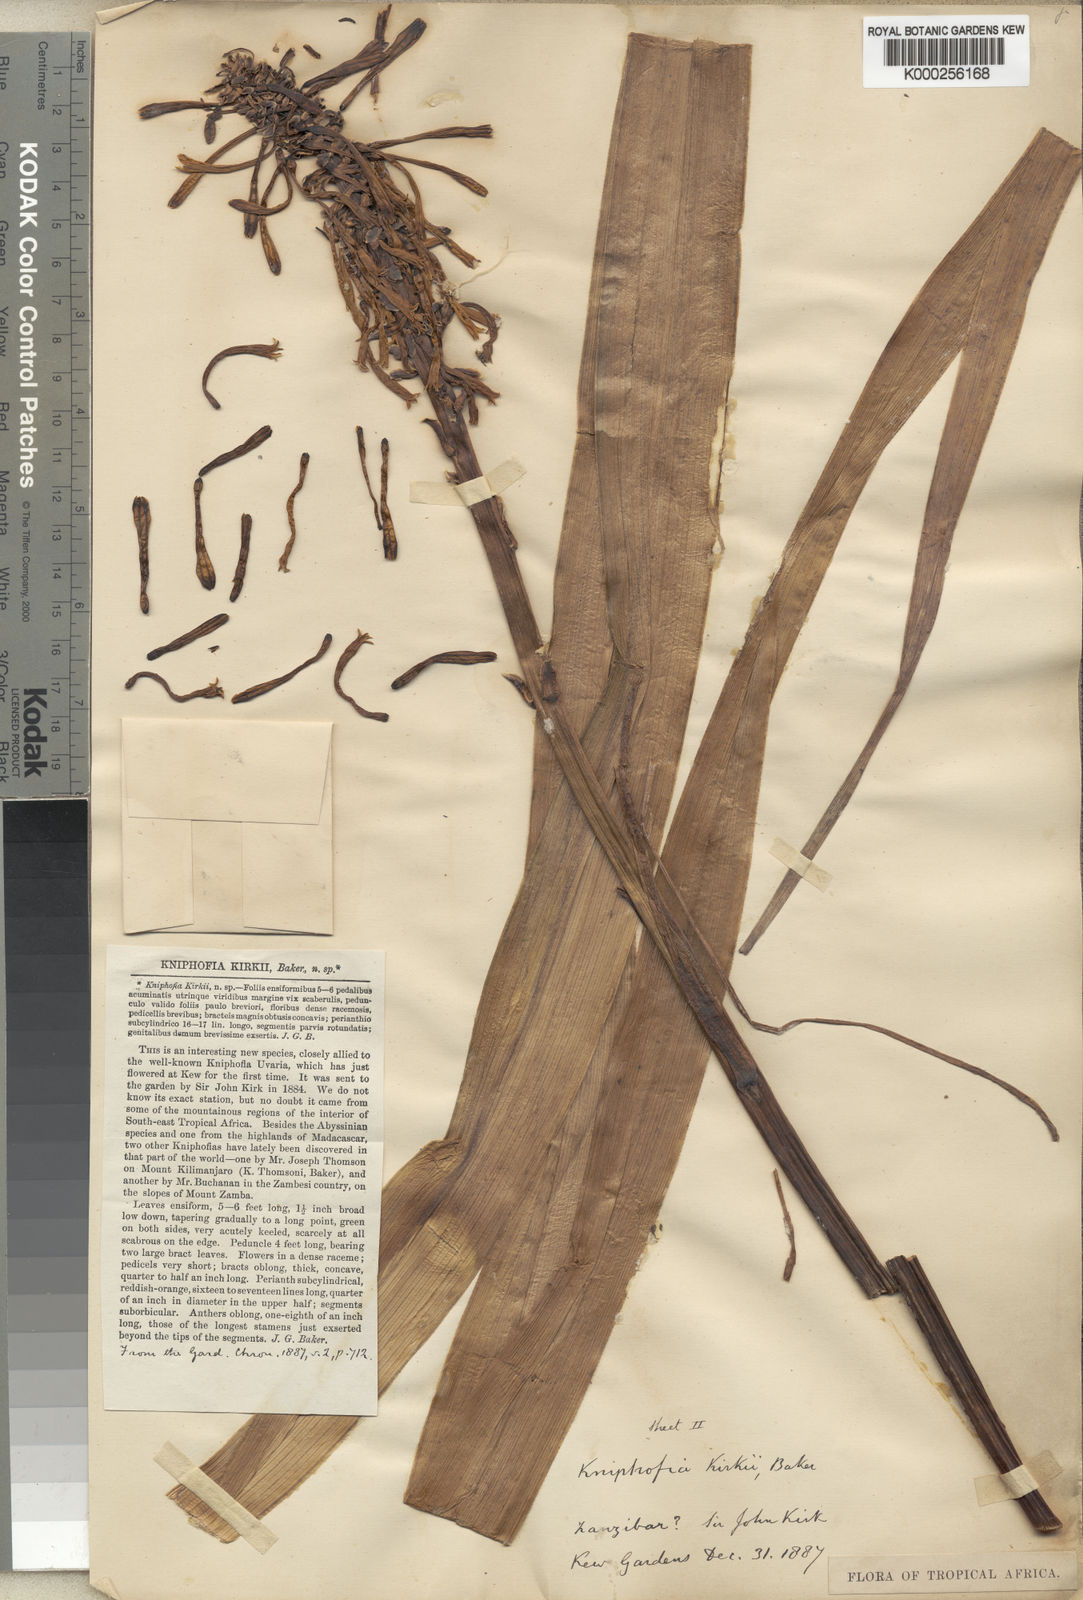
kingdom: Plantae
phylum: Tracheophyta
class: Liliopsida
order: Asparagales
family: Asphodelaceae
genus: Kniphofia
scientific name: Kniphofia kirkii
